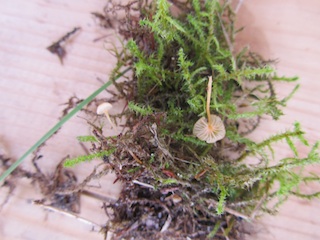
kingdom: Fungi
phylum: Basidiomycota
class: Agaricomycetes
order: Hymenochaetales
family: Rickenellaceae
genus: Rickenella
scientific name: Rickenella swartzii
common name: finstokket mosnavlehat
